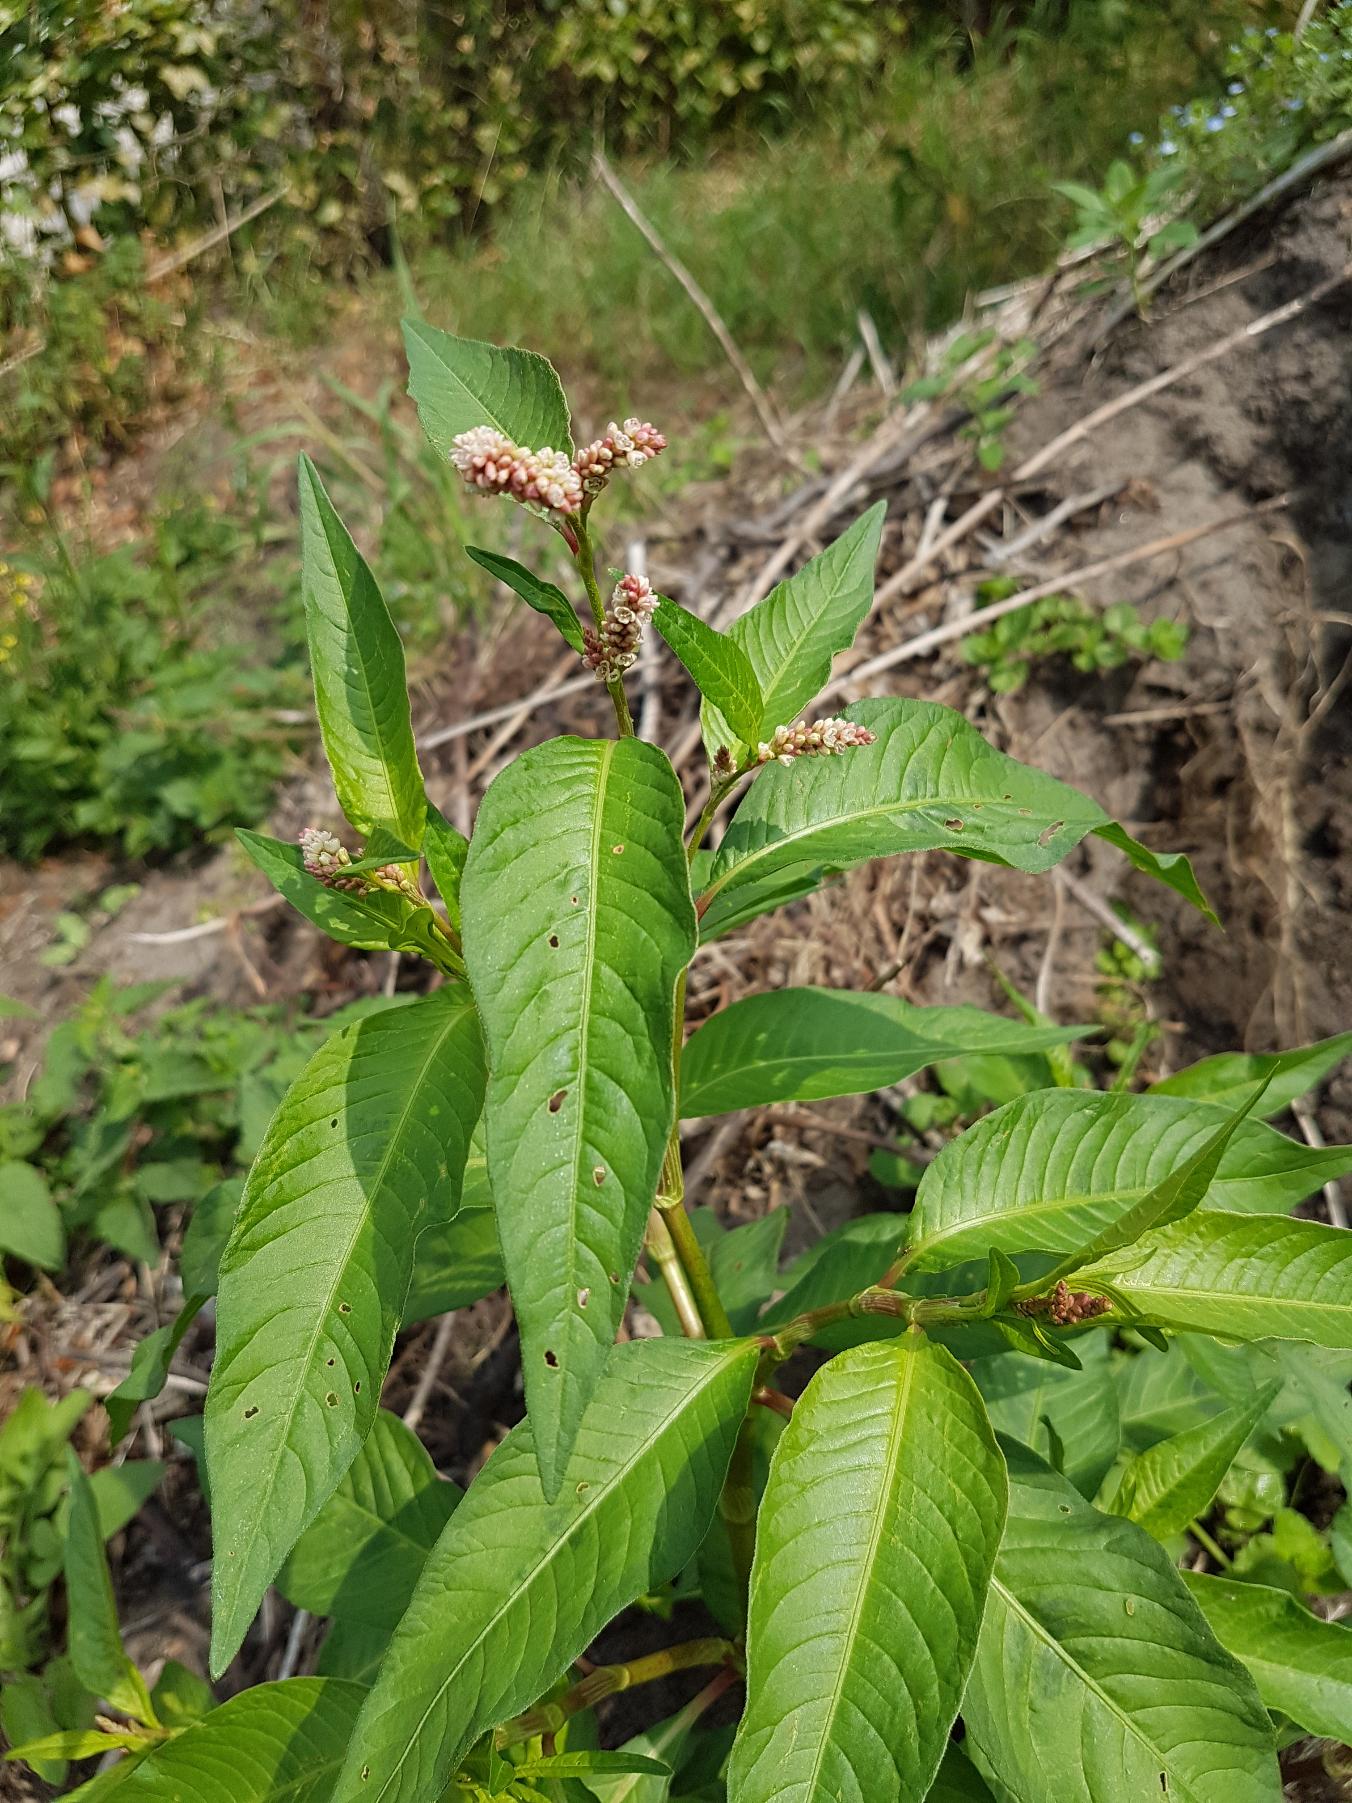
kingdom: Plantae
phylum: Tracheophyta
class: Magnoliopsida
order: Caryophyllales
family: Polygonaceae
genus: Persicaria
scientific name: Persicaria lapathifolia
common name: Knudet pileurt (underart)
